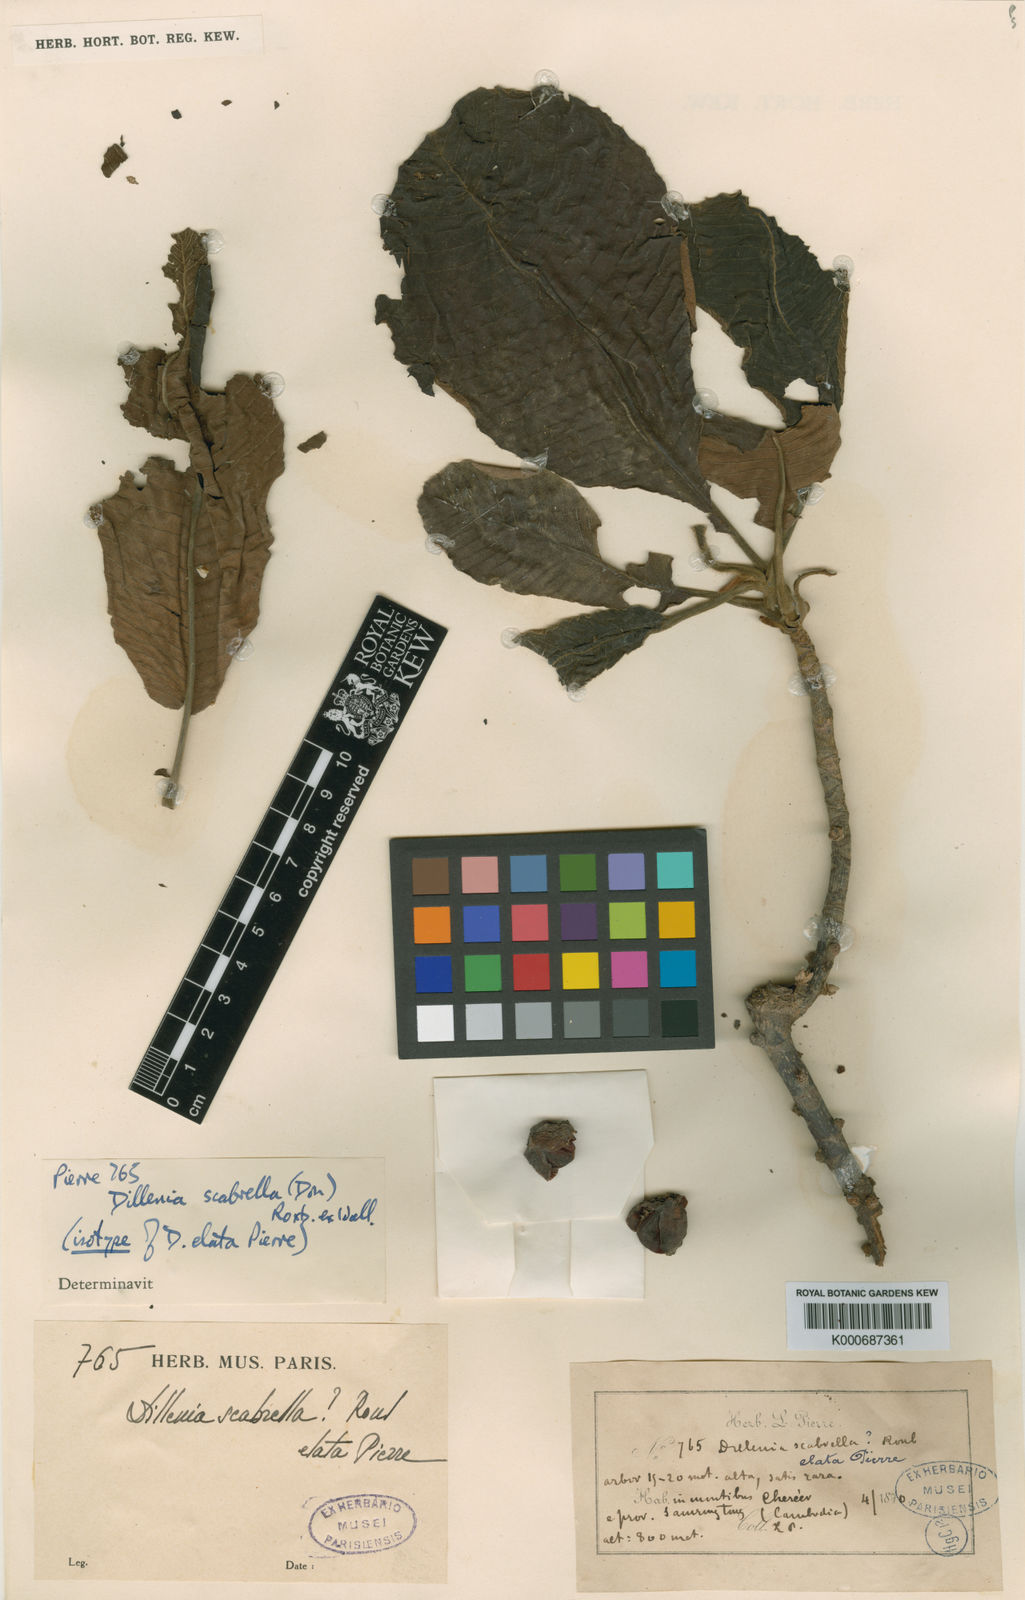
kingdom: Plantae
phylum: Tracheophyta
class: Magnoliopsida
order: Dilleniales
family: Dilleniaceae
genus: Dillenia
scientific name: Dillenia scabrella
